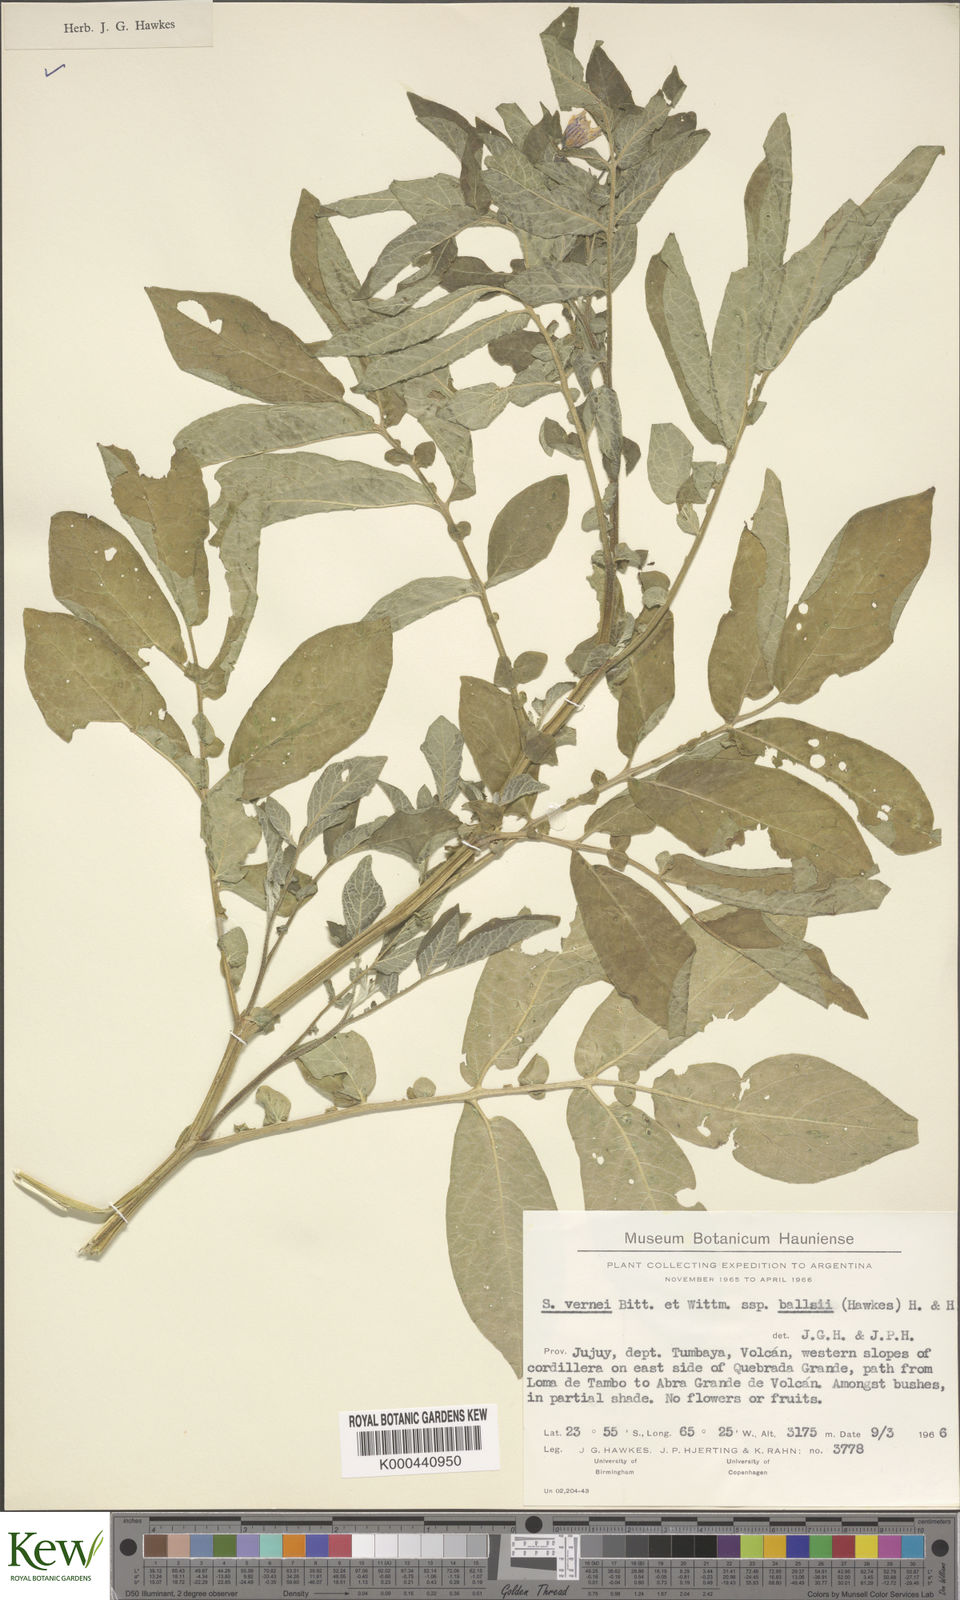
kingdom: Plantae
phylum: Tracheophyta
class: Magnoliopsida
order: Solanales
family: Solanaceae
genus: Solanum
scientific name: Solanum vernei
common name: Purple potato
